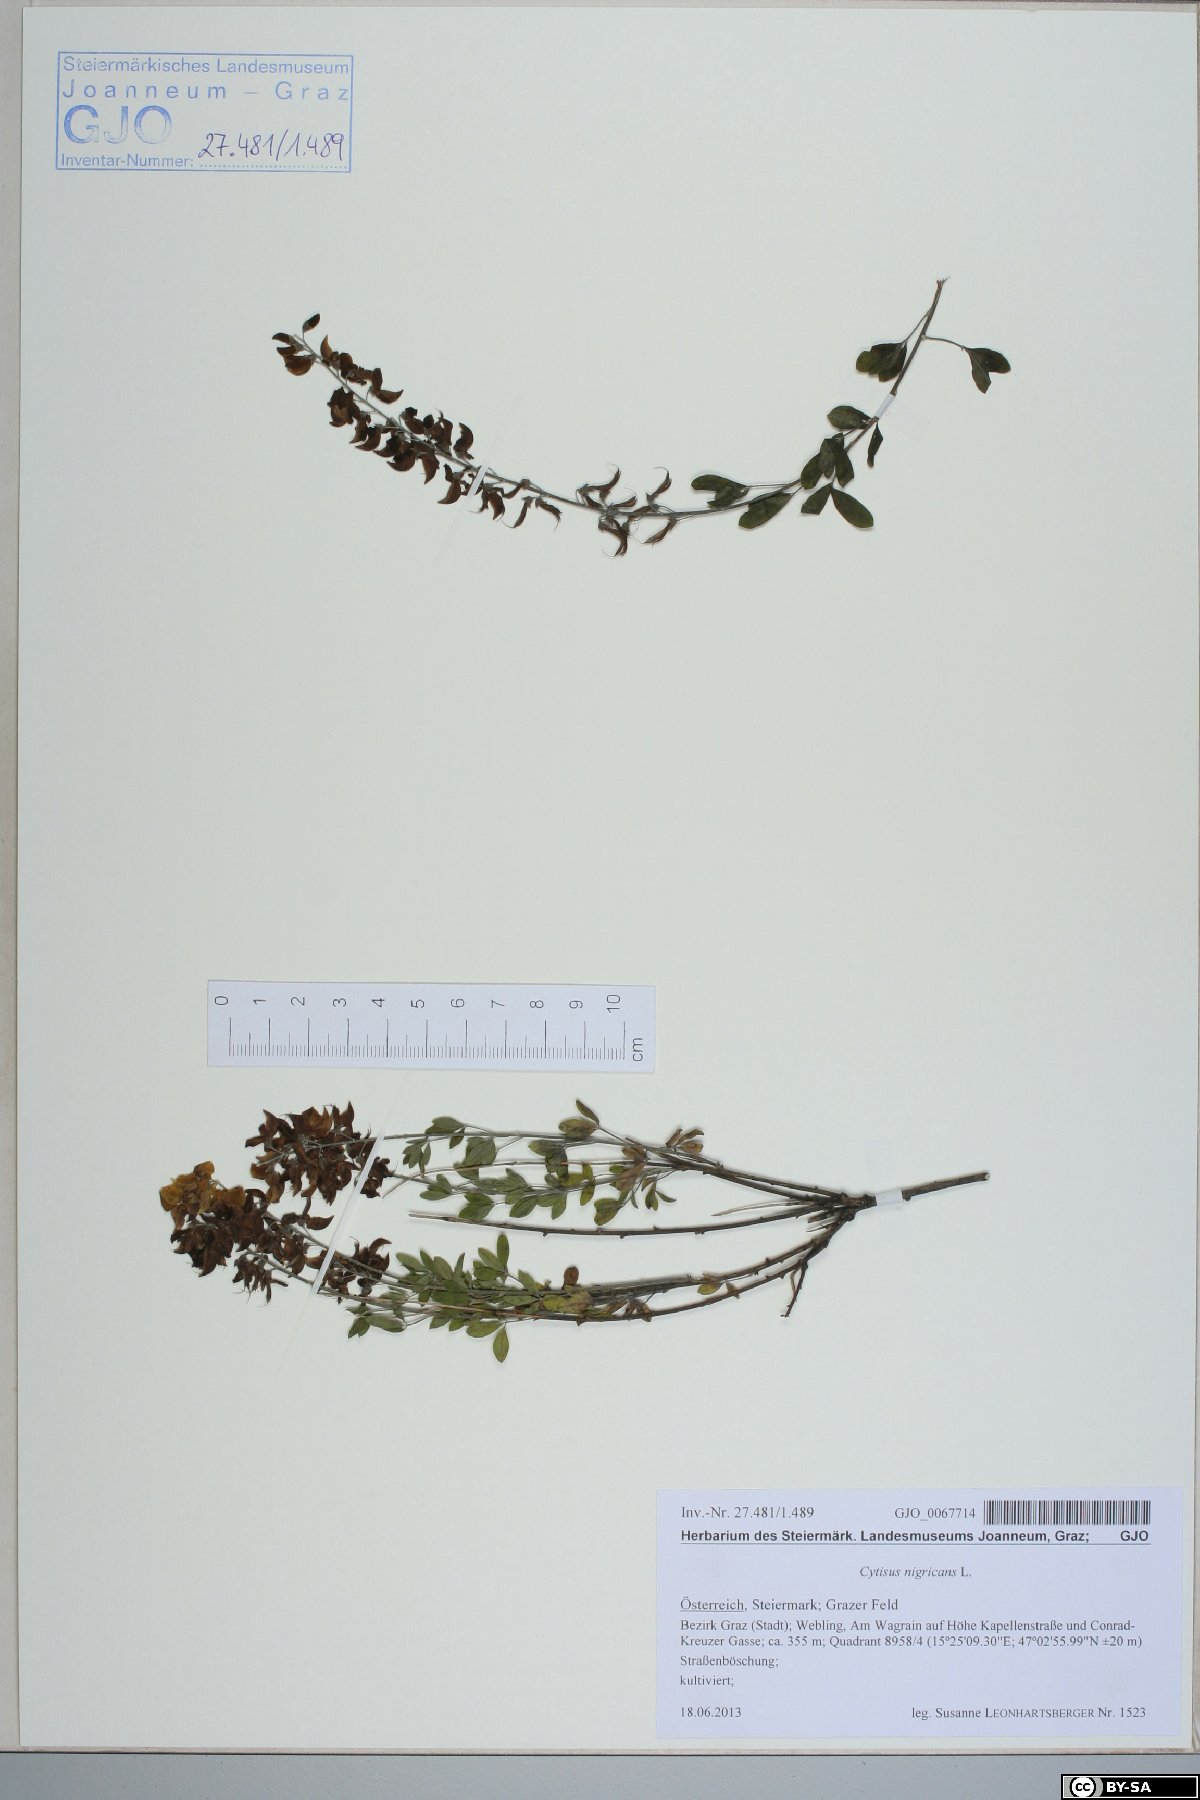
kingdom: Plantae
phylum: Tracheophyta
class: Magnoliopsida
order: Fabales
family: Fabaceae
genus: Cytisus
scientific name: Cytisus nigricans
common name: Black broom
